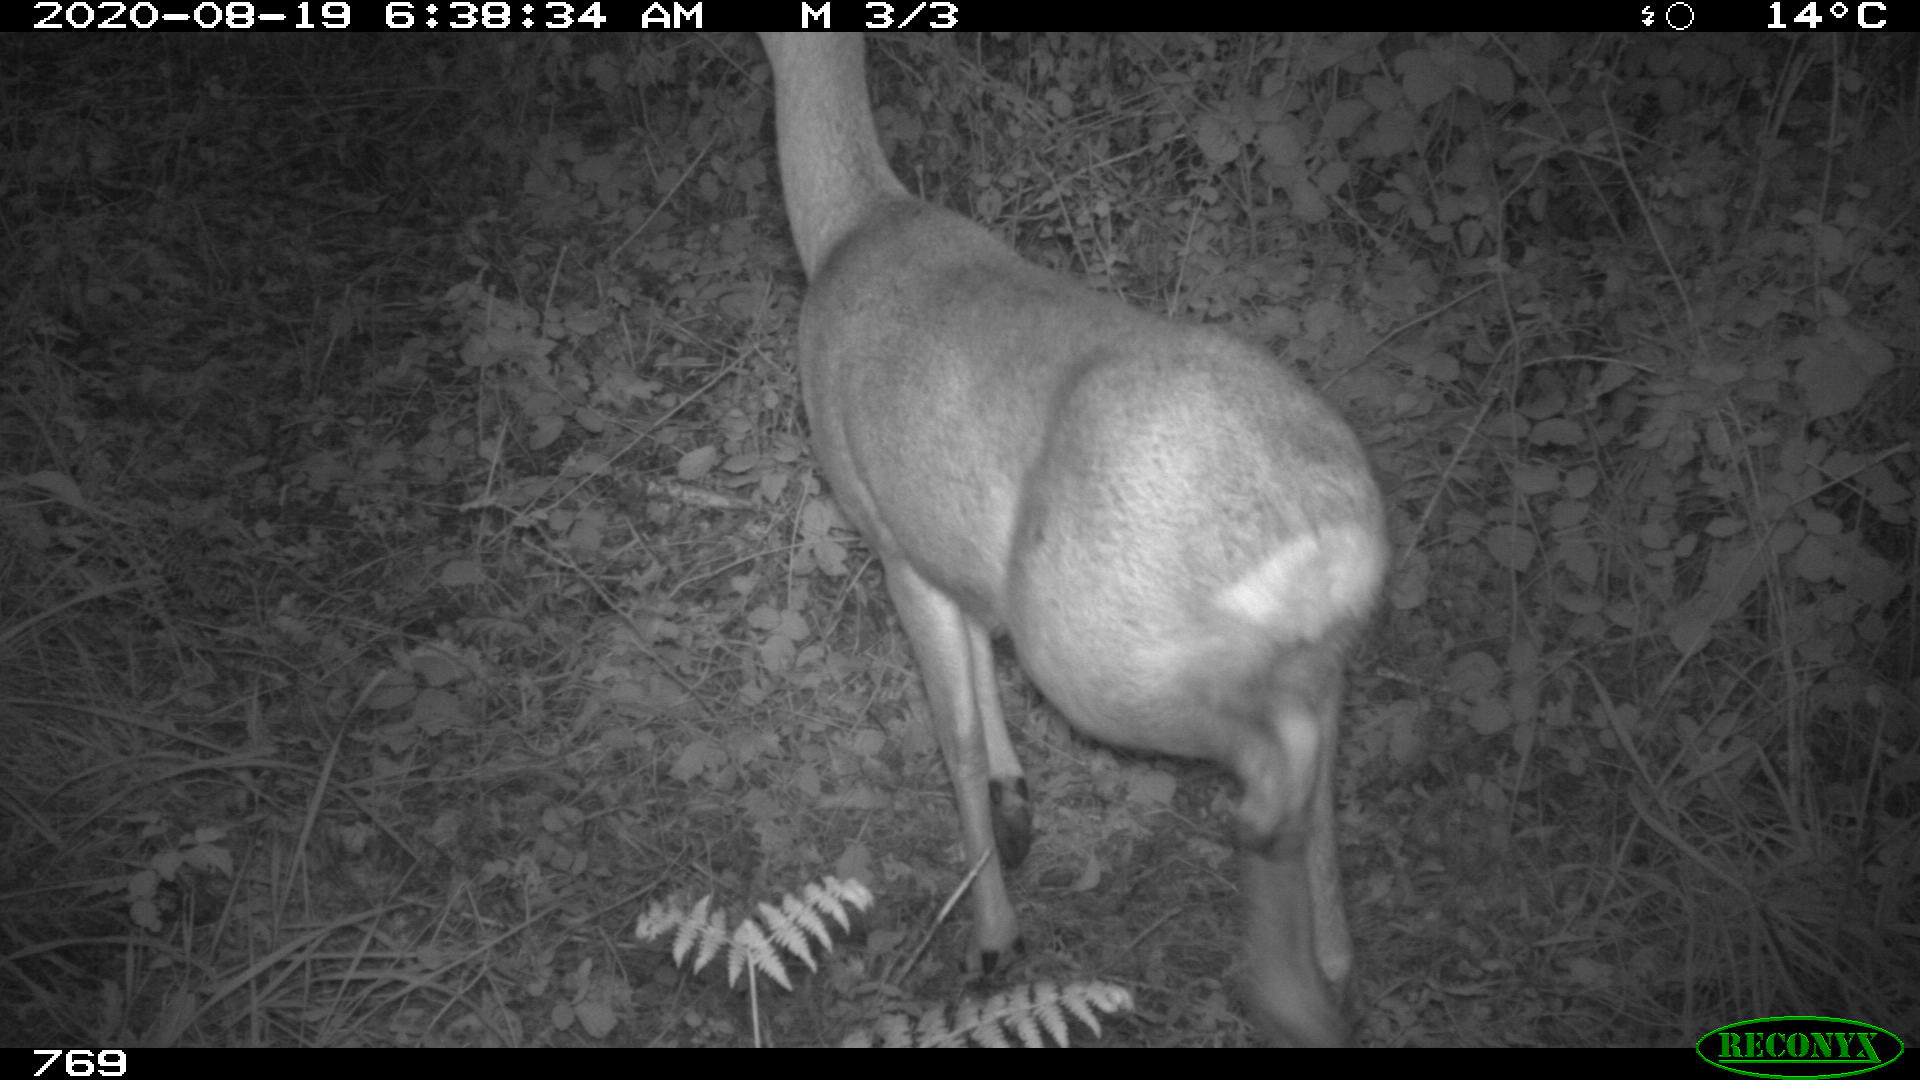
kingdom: Animalia
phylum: Chordata
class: Mammalia
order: Artiodactyla
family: Cervidae
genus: Capreolus
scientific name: Capreolus capreolus
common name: Western roe deer
